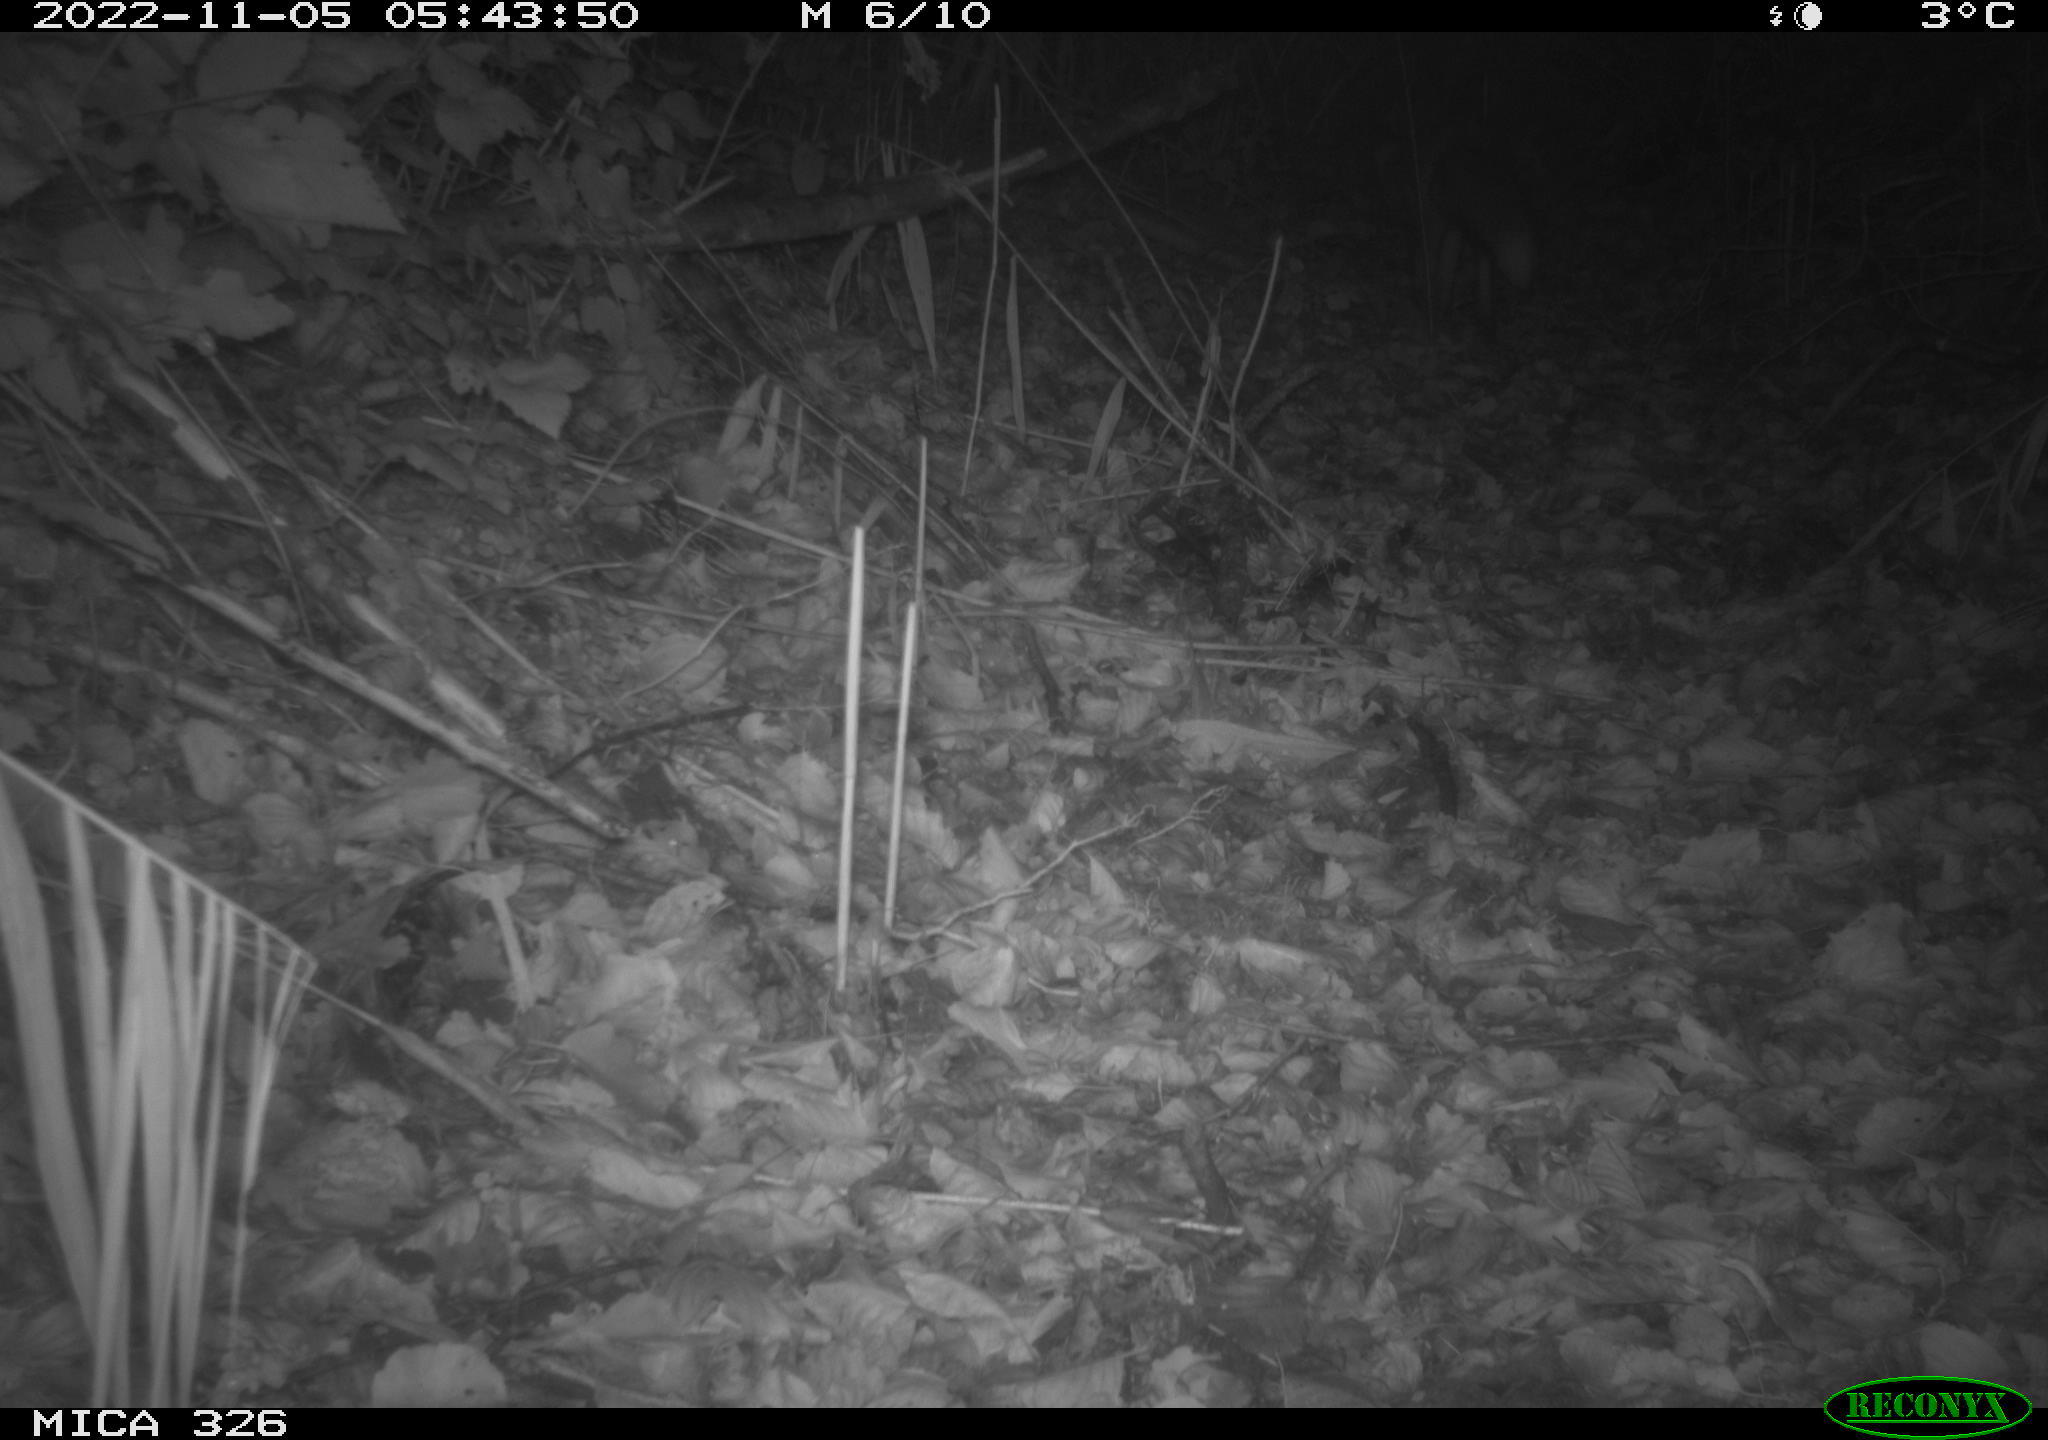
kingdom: Animalia
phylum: Chordata
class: Mammalia
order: Carnivora
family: Canidae
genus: Vulpes
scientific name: Vulpes vulpes
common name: Red fox
